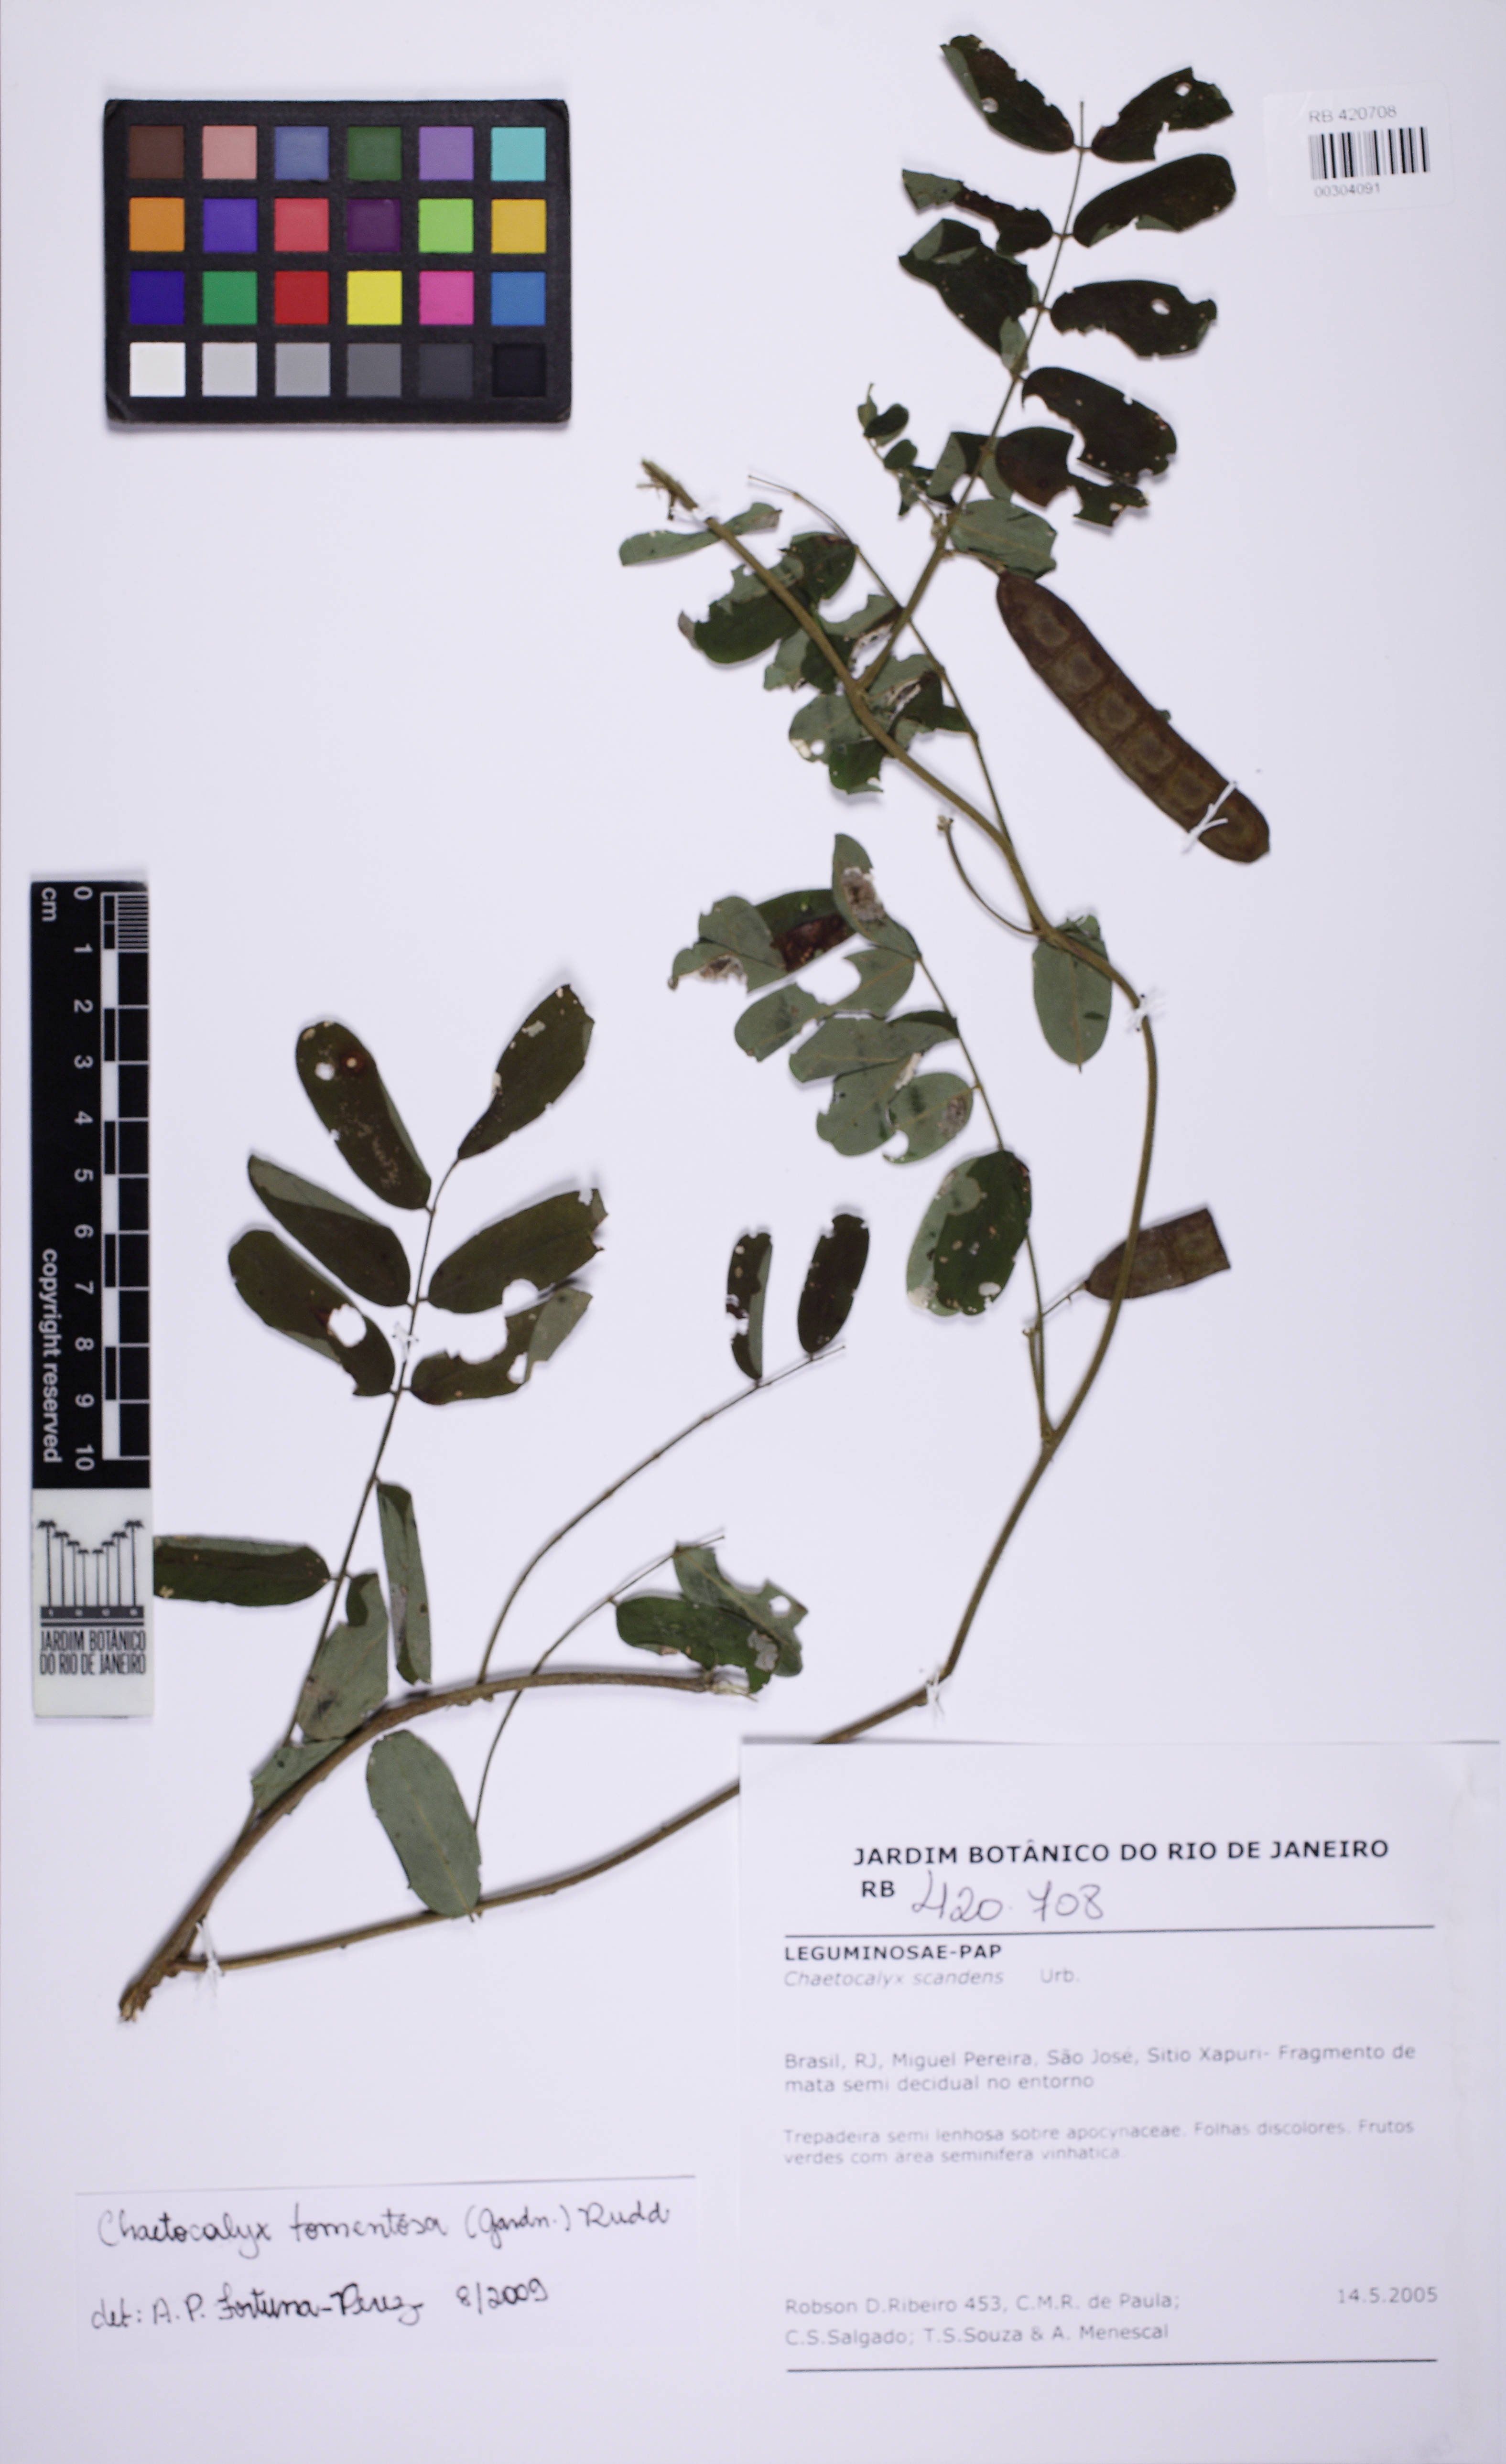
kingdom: Plantae
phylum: Tracheophyta
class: Magnoliopsida
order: Fabales
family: Fabaceae
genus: Nissolia
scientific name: Nissolia tomentosa
